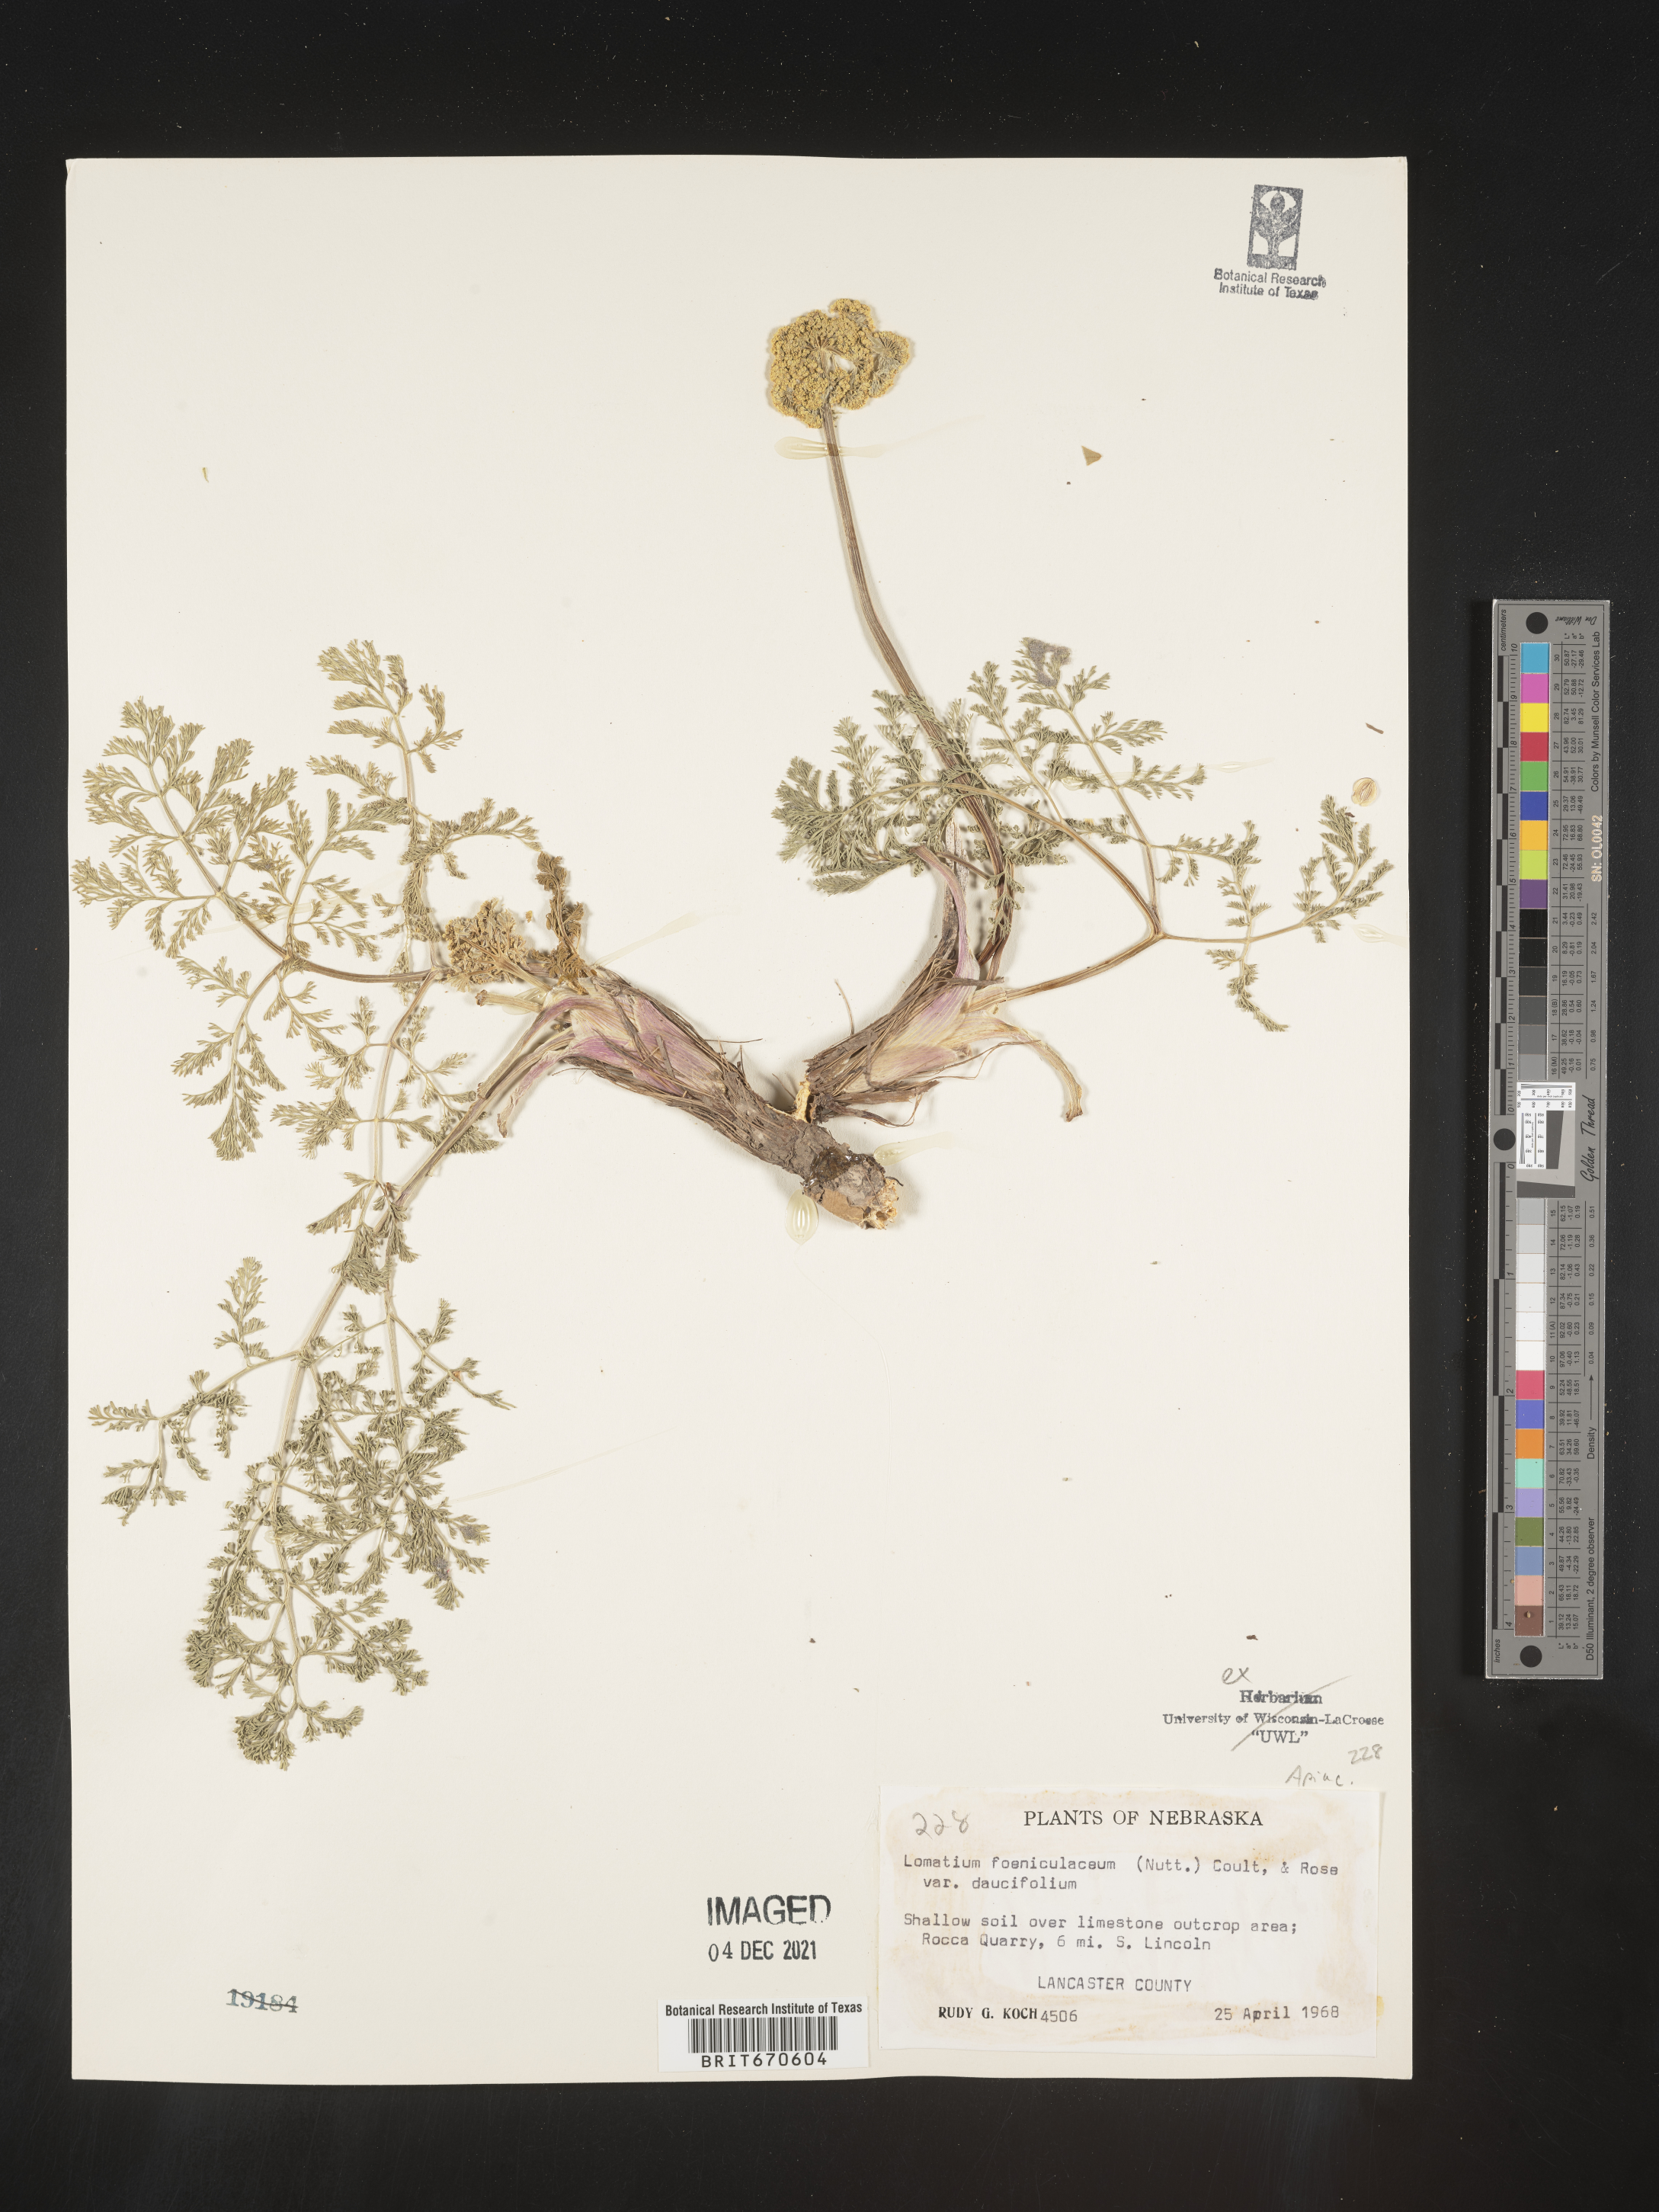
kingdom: Plantae
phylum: Tracheophyta
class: Magnoliopsida
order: Apiales
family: Apiaceae
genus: Lomatium
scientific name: Lomatium foeniculaceum
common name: Desert-parsley
